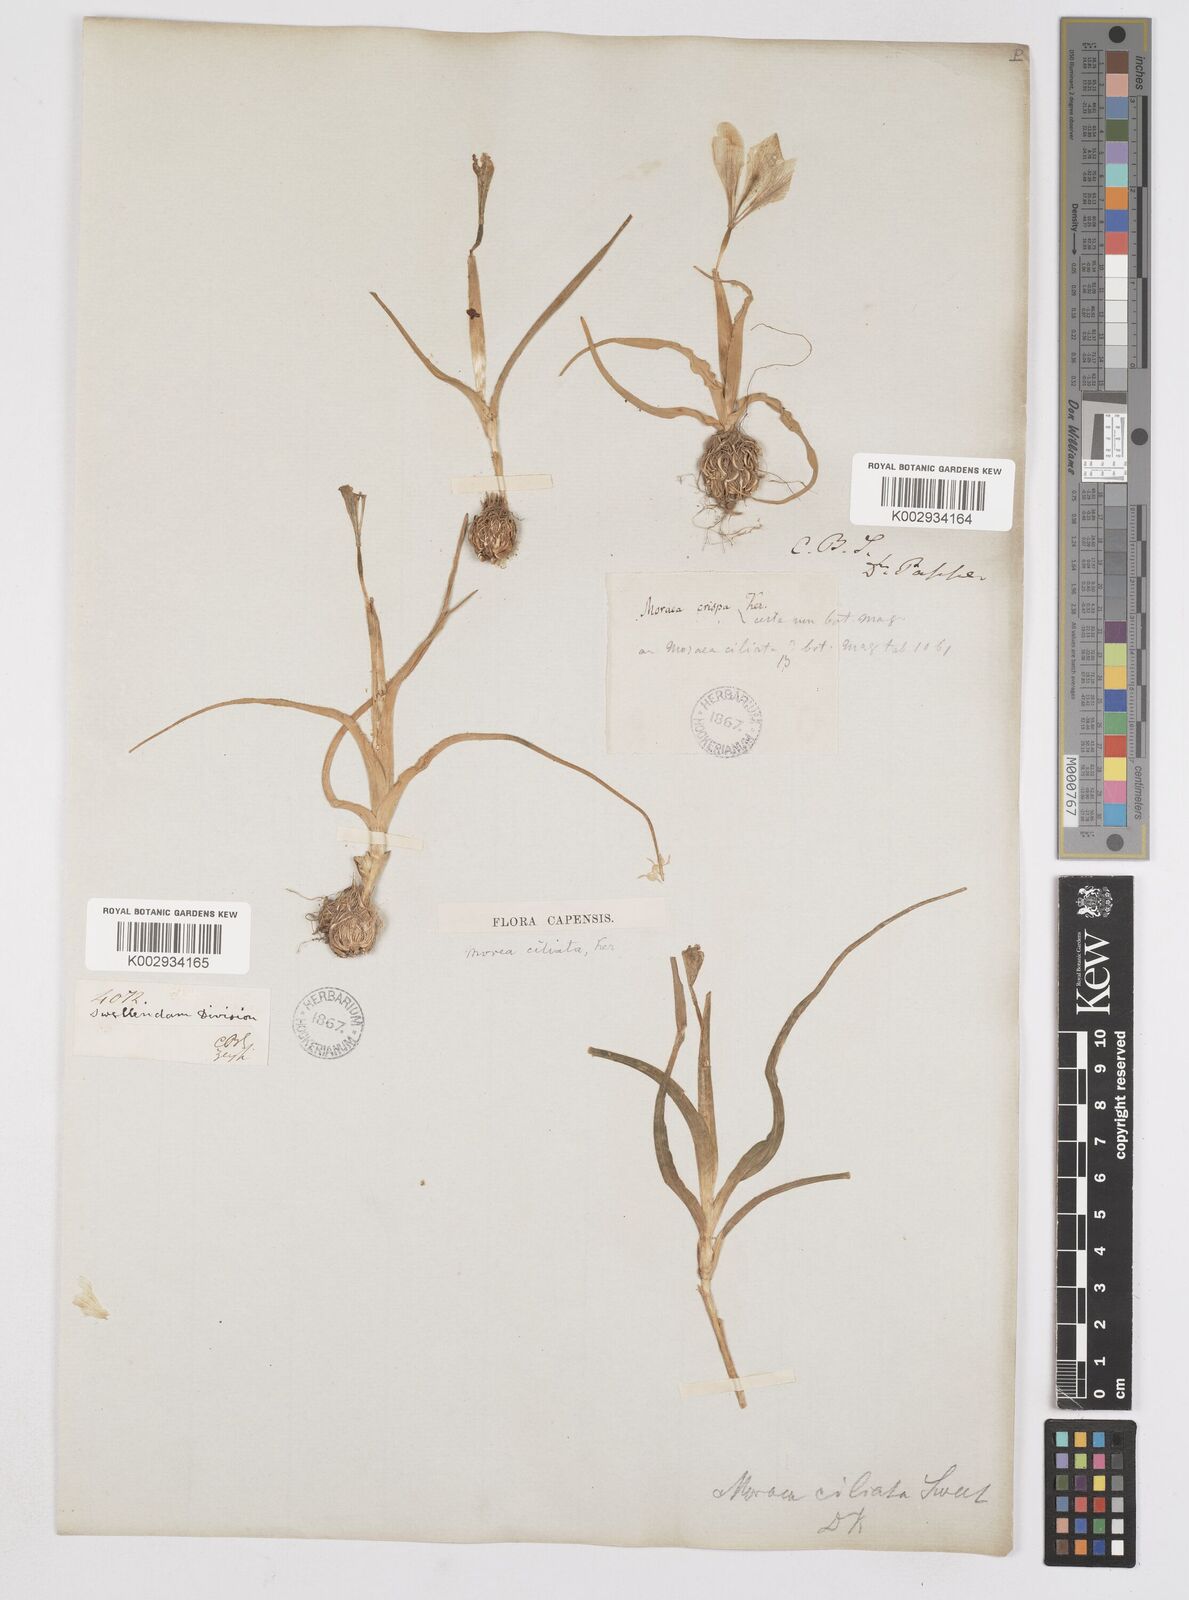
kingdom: Plantae
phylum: Tracheophyta
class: Liliopsida
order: Asparagales
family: Iridaceae
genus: Moraea
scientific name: Moraea ciliata
